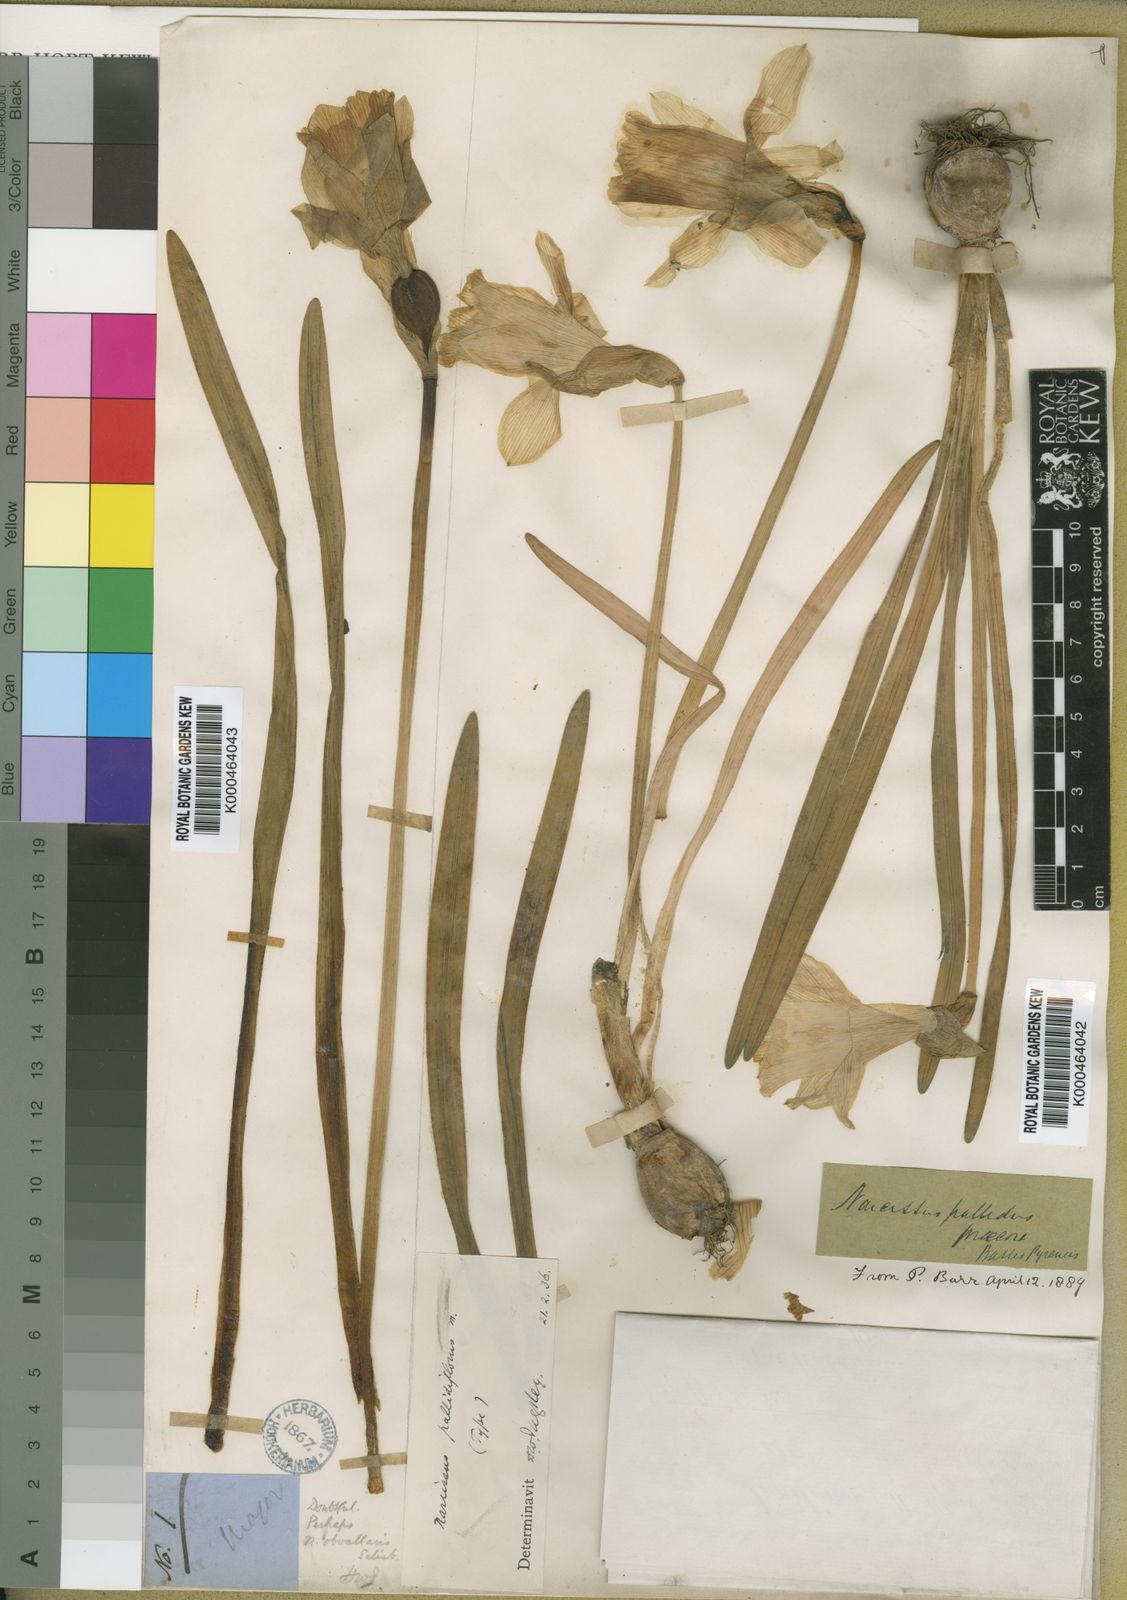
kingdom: Plantae
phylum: Tracheophyta
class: Liliopsida
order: Asparagales
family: Amaryllidaceae
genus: Narcissus
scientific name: Narcissus pallidiflorus
